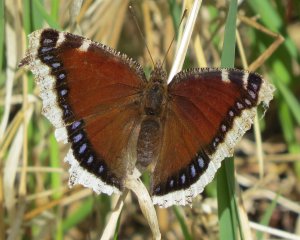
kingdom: Animalia
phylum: Arthropoda
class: Insecta
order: Lepidoptera
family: Nymphalidae
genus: Nymphalis
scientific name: Nymphalis antiopa
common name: Mourning Cloak
